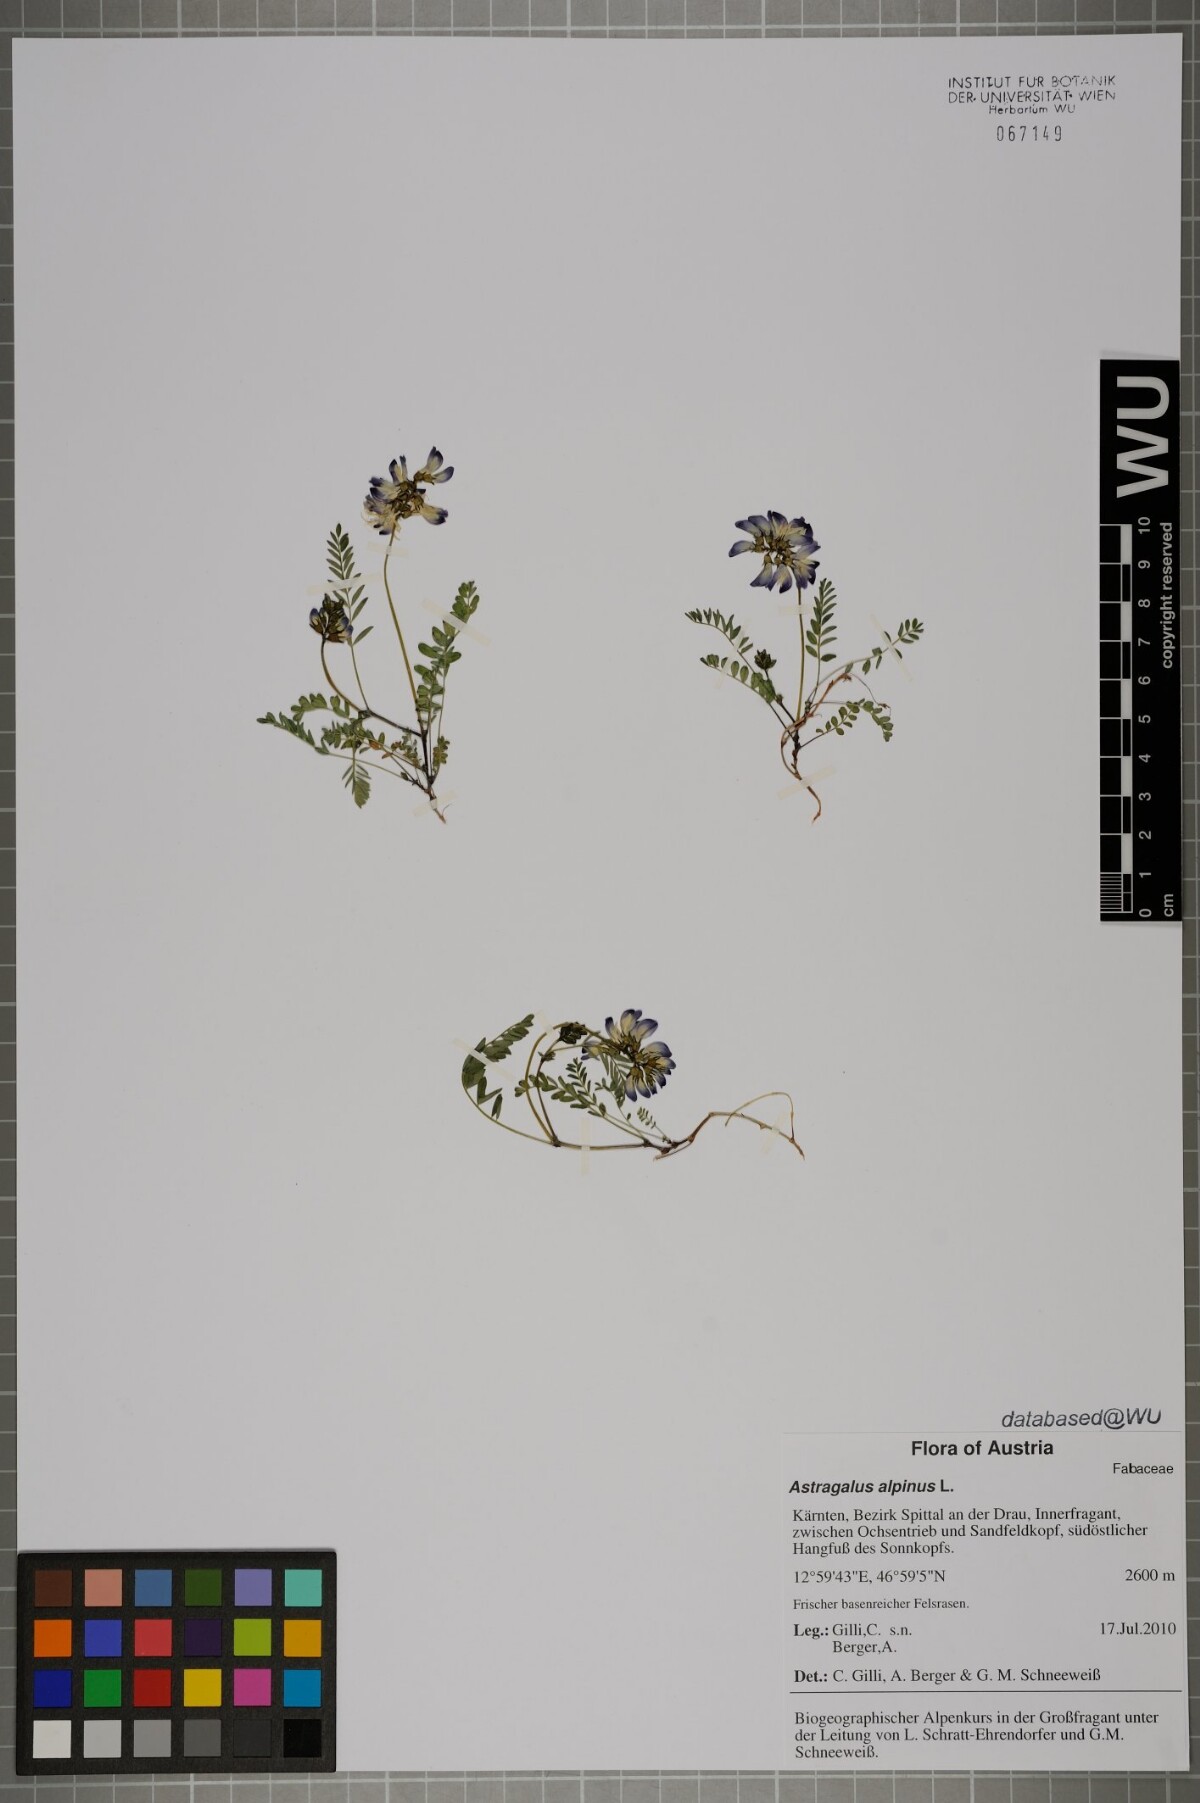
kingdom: Plantae
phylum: Tracheophyta
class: Magnoliopsida
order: Fabales
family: Fabaceae
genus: Astragalus
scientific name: Astragalus alpinus
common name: Alpine milk-vetch
